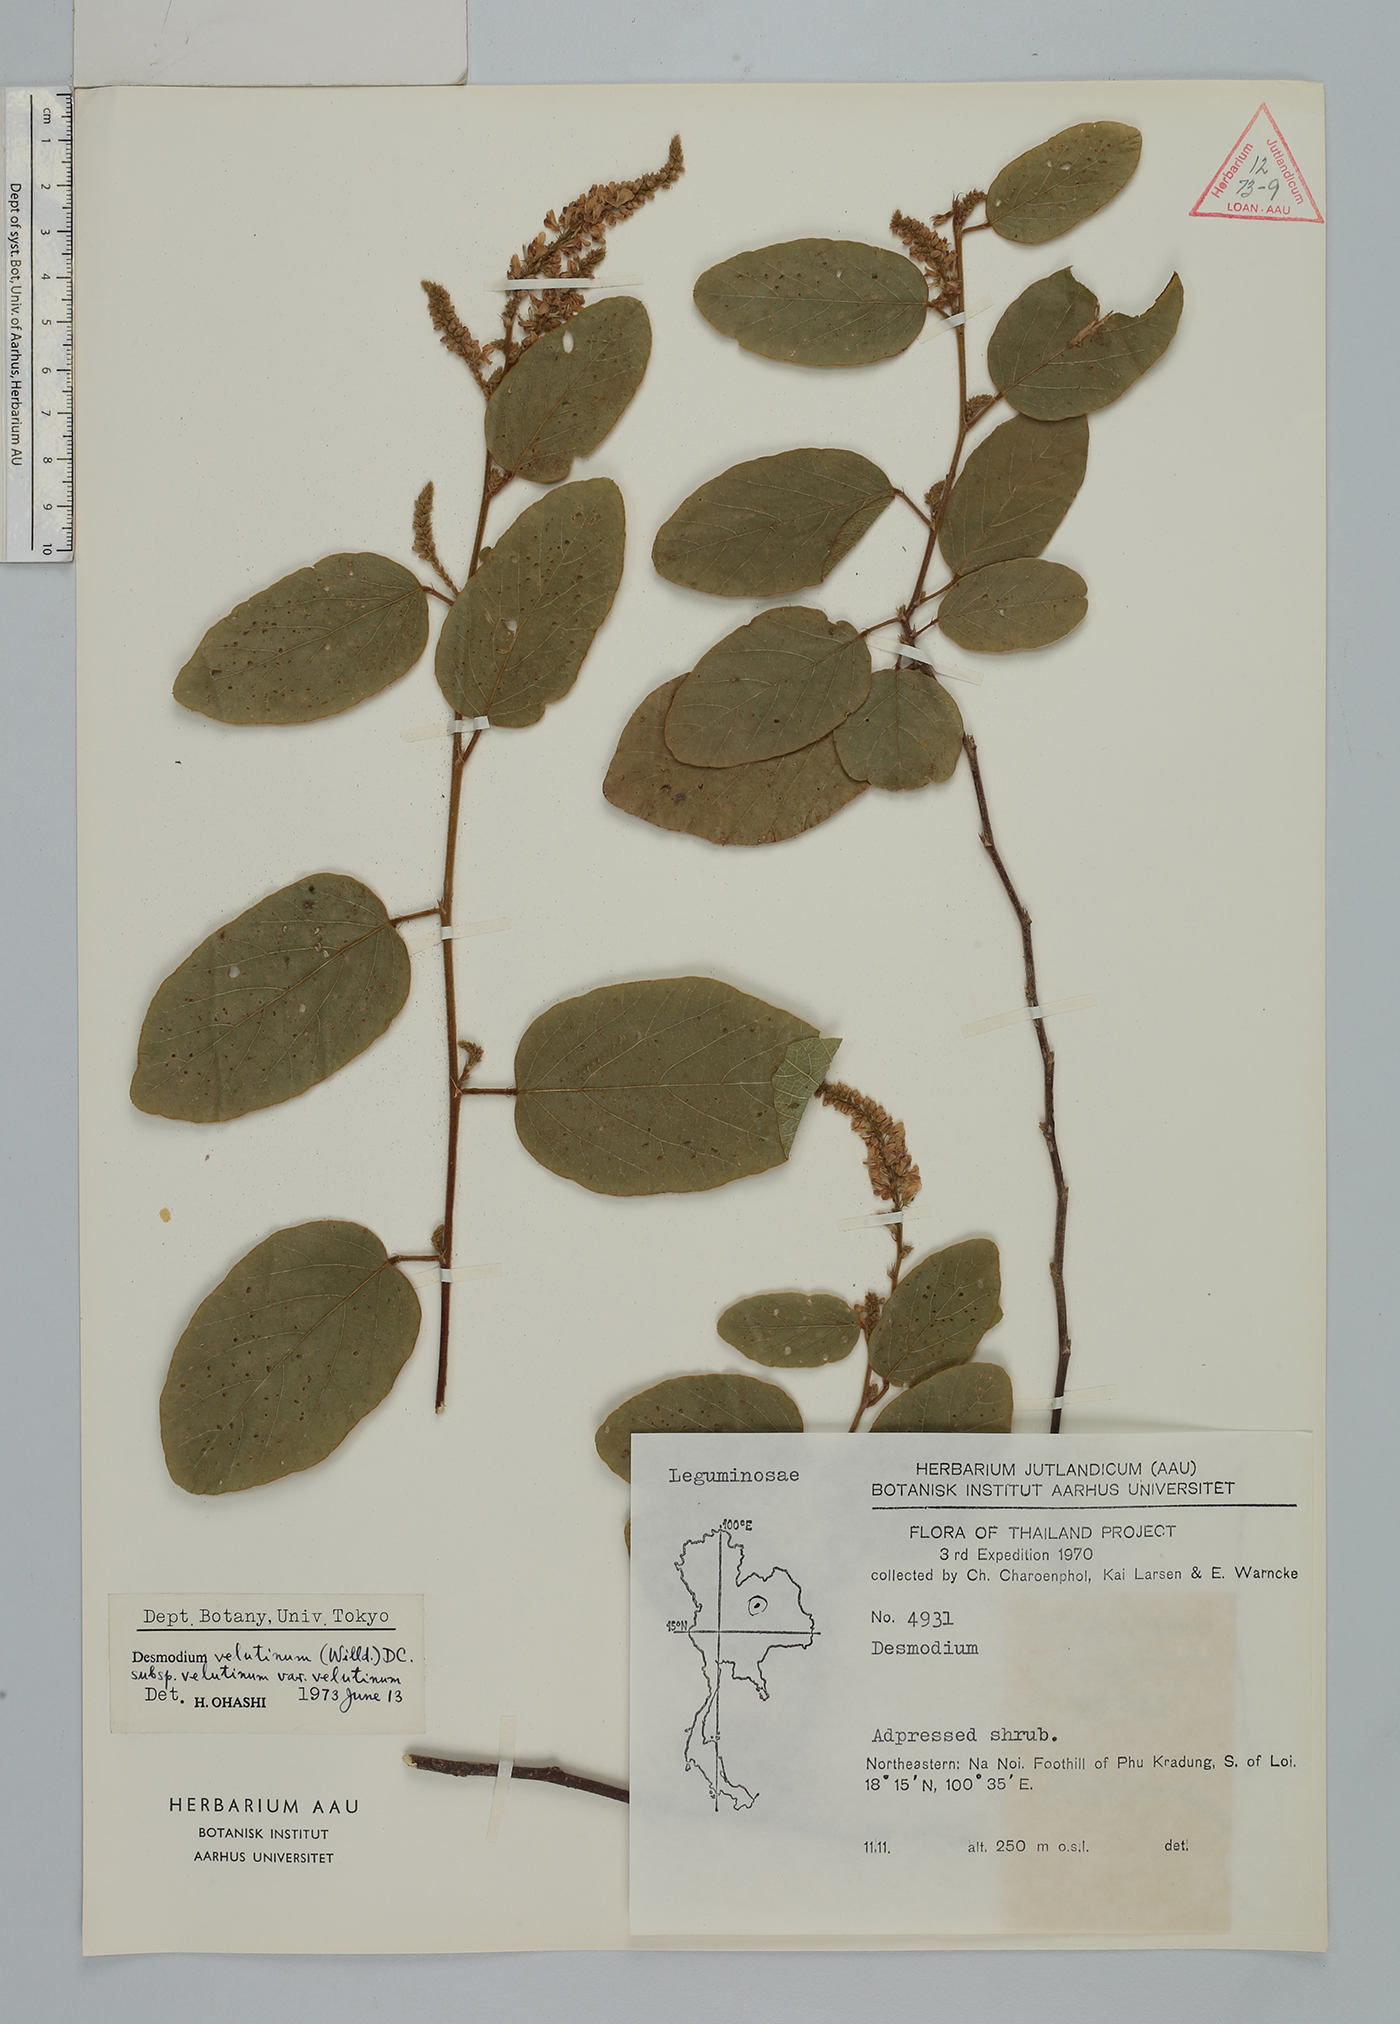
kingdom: Plantae
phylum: Tracheophyta
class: Magnoliopsida
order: Fabales
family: Fabaceae
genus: Desmodium
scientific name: Desmodium
